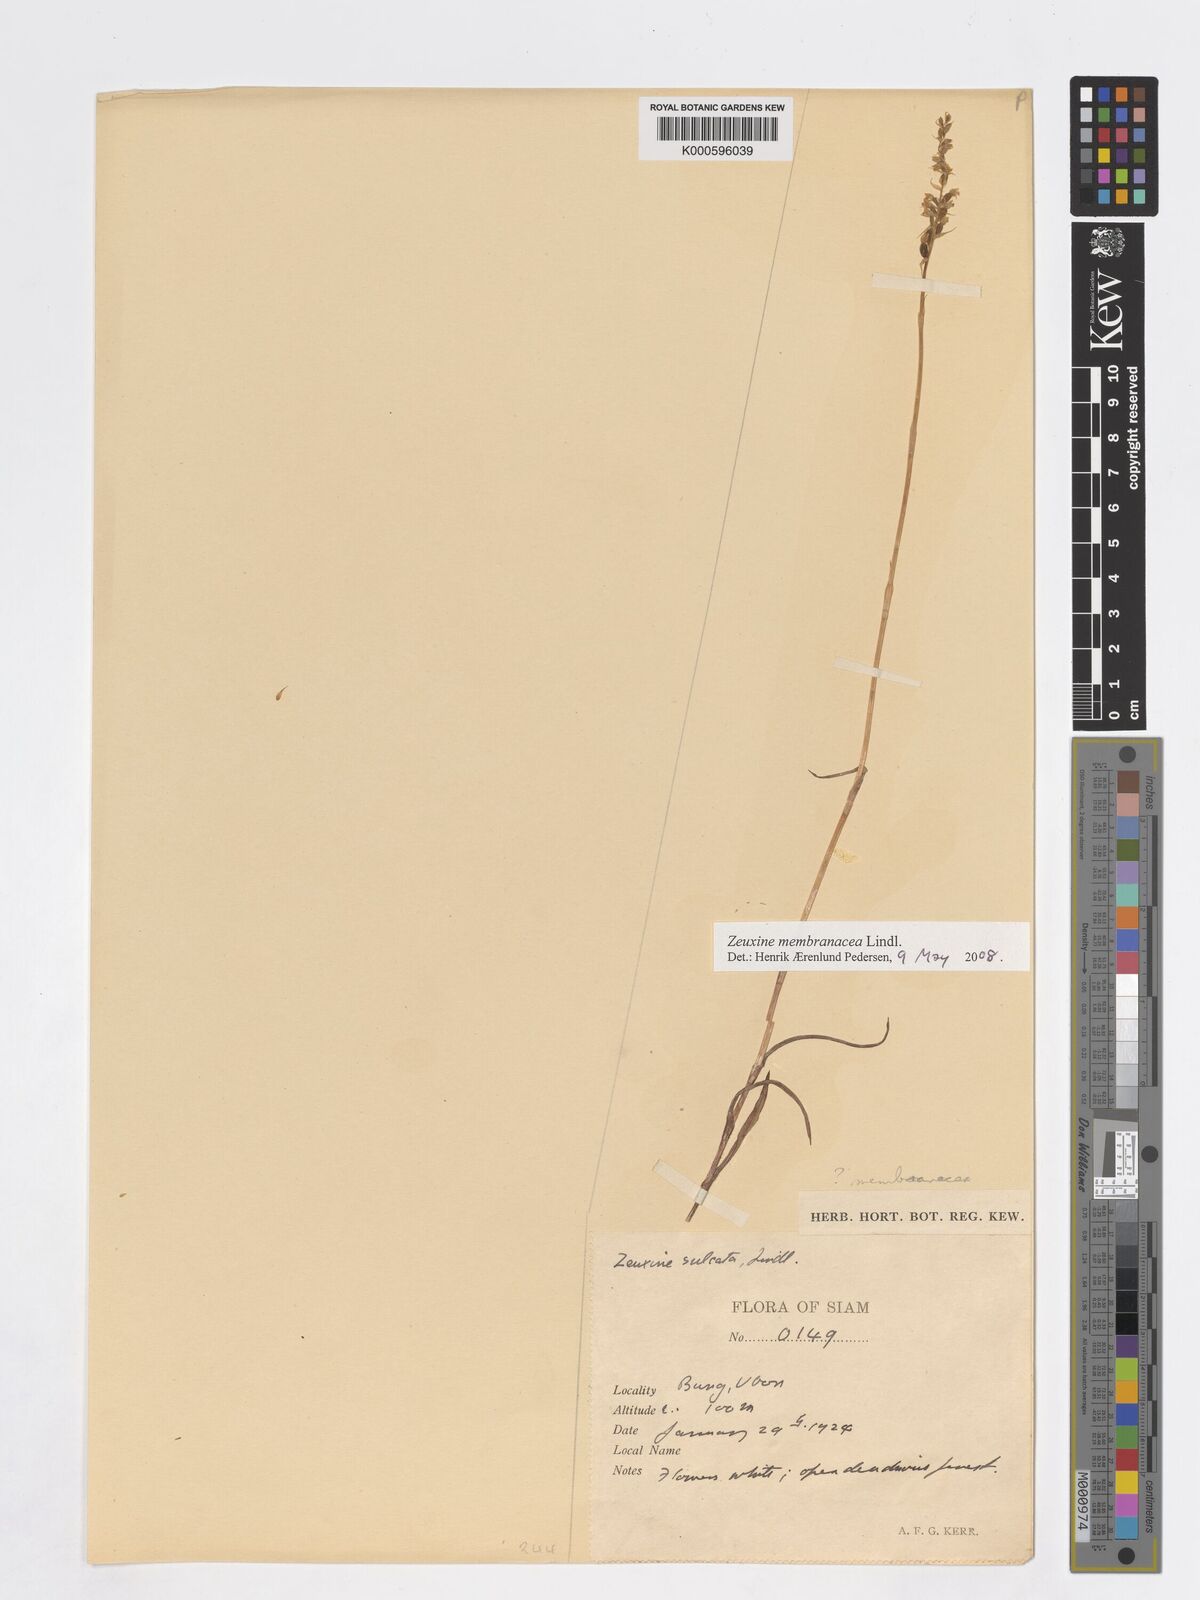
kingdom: Plantae
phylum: Tracheophyta
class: Liliopsida
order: Asparagales
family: Orchidaceae
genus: Zeuxine
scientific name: Zeuxine membranacea
